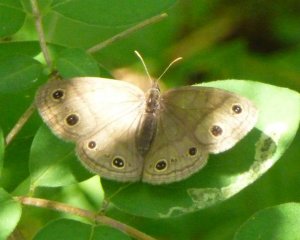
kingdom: Animalia
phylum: Arthropoda
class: Insecta
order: Lepidoptera
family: Nymphalidae
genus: Euptychia
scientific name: Euptychia cymela
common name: Little Wood Satyr
